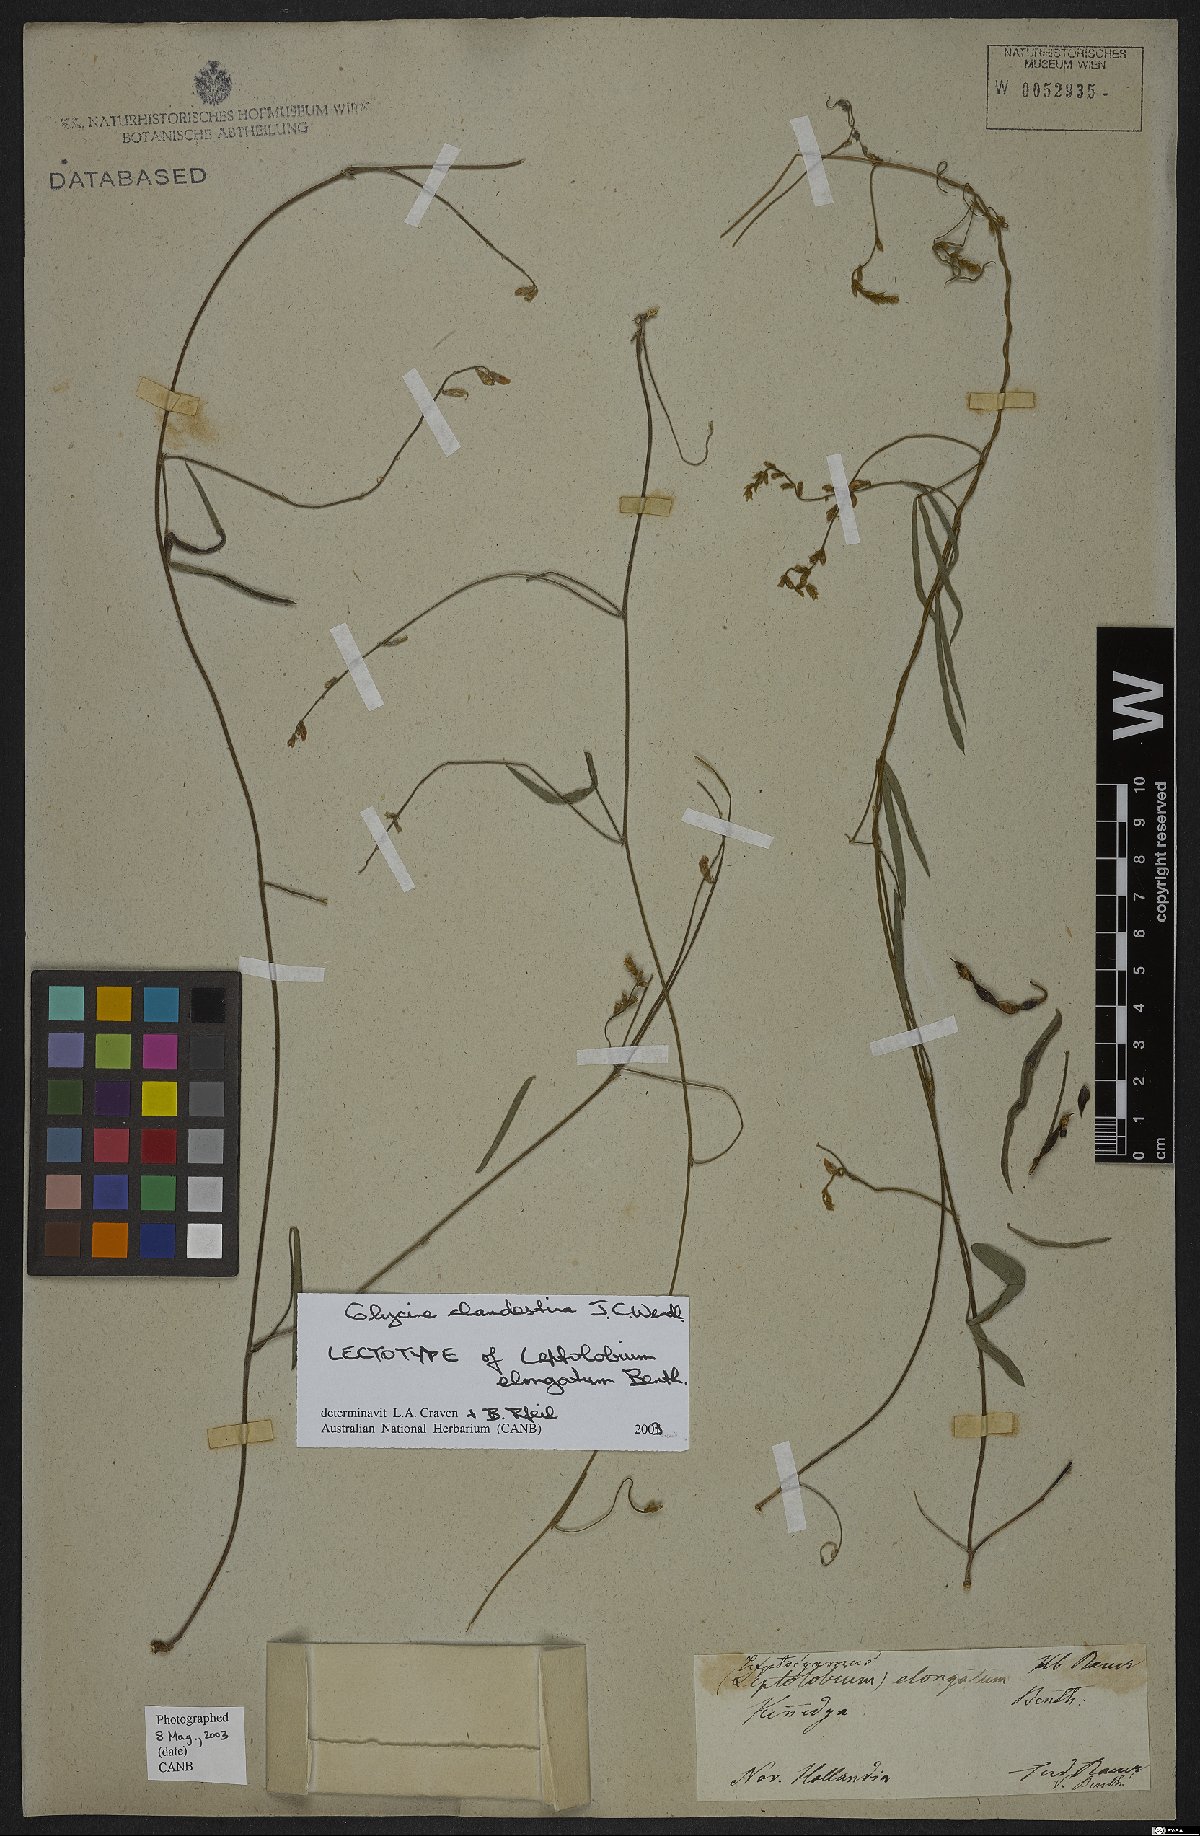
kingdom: Plantae
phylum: Tracheophyta
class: Magnoliopsida
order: Fabales
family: Fabaceae
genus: Glycine
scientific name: Glycine clandestina
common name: Twining glycine
